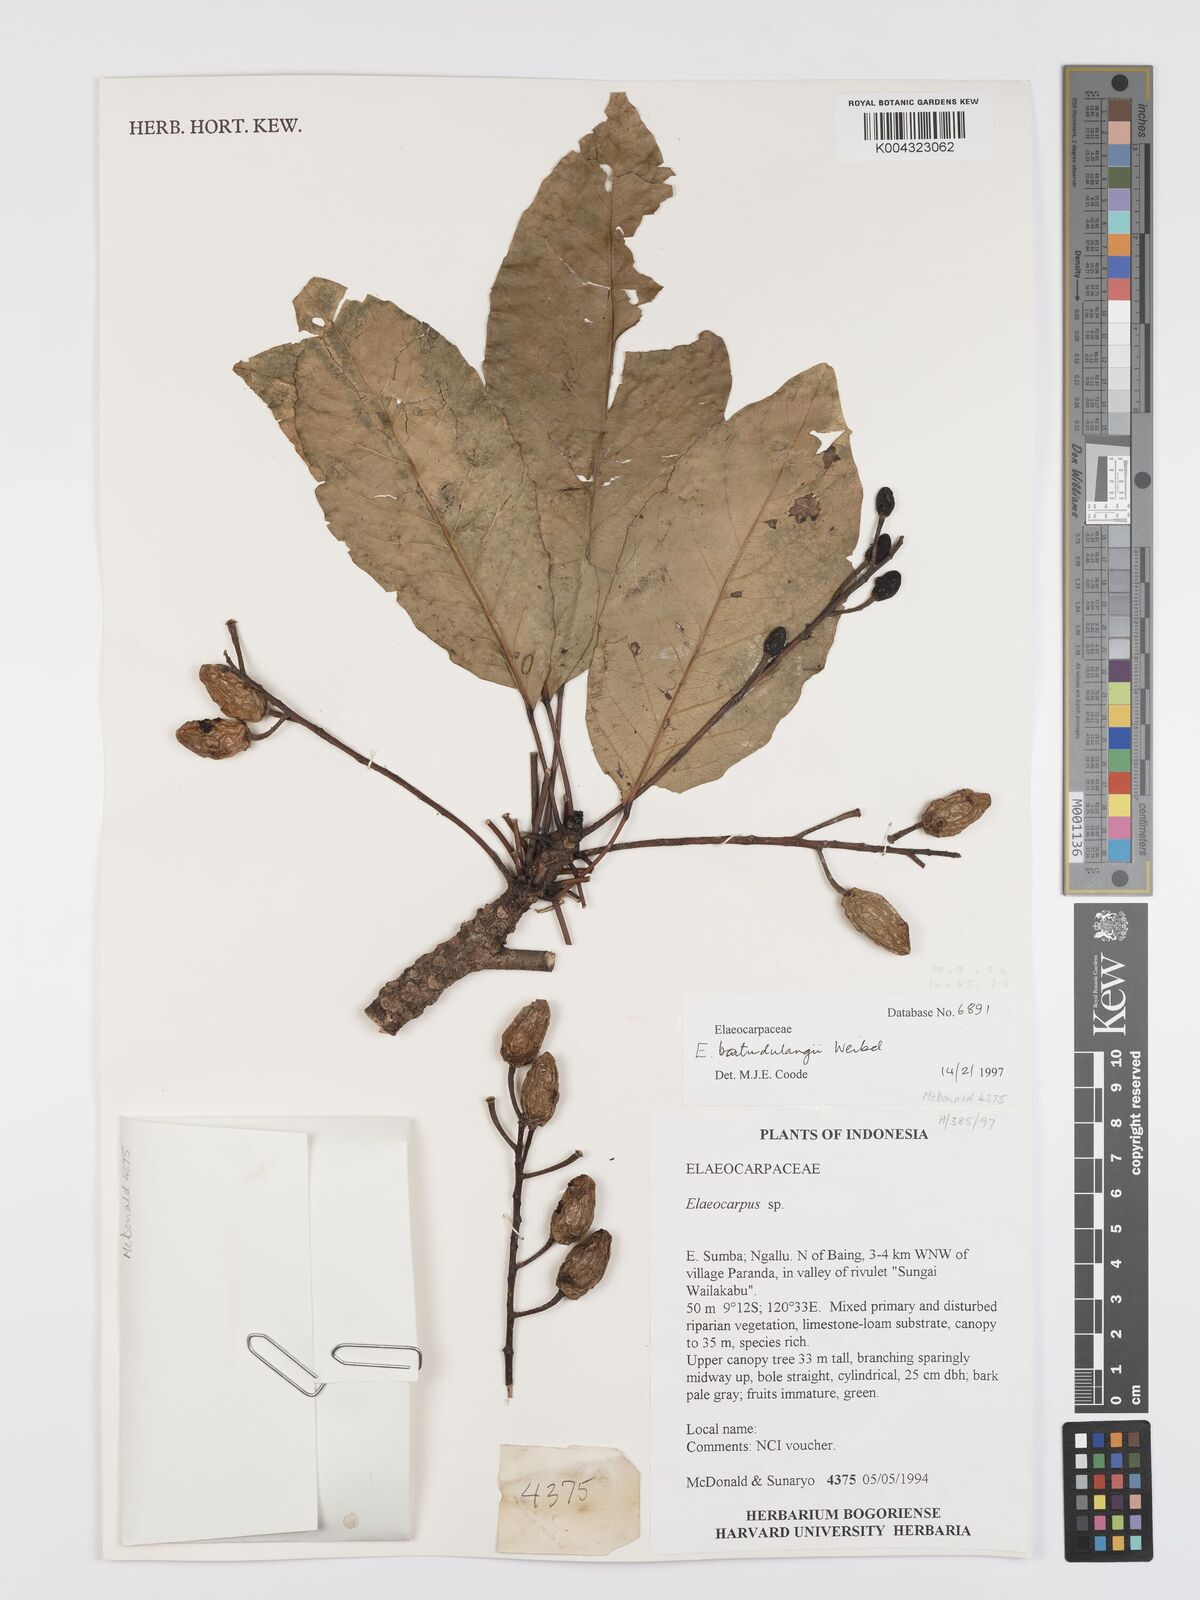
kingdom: Plantae
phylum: Tracheophyta
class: Magnoliopsida
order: Oxalidales
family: Elaeocarpaceae
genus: Elaeocarpus
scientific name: Elaeocarpus
